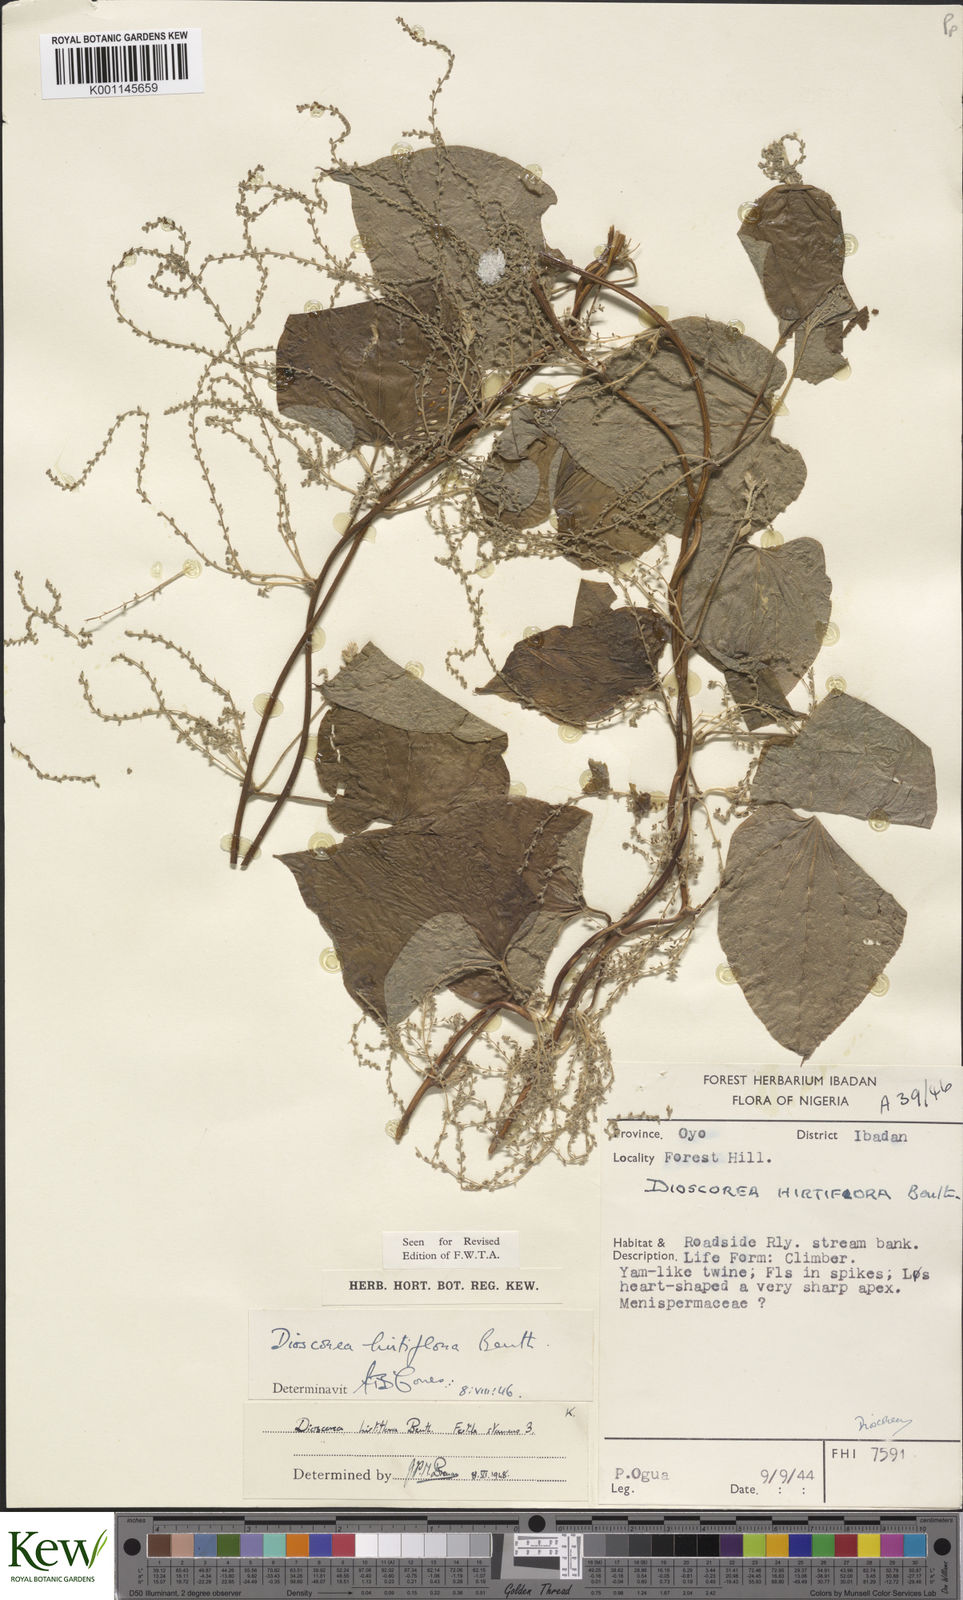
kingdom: Plantae
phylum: Tracheophyta
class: Liliopsida
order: Dioscoreales
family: Dioscoreaceae
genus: Dioscorea
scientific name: Dioscorea hirtiflora
